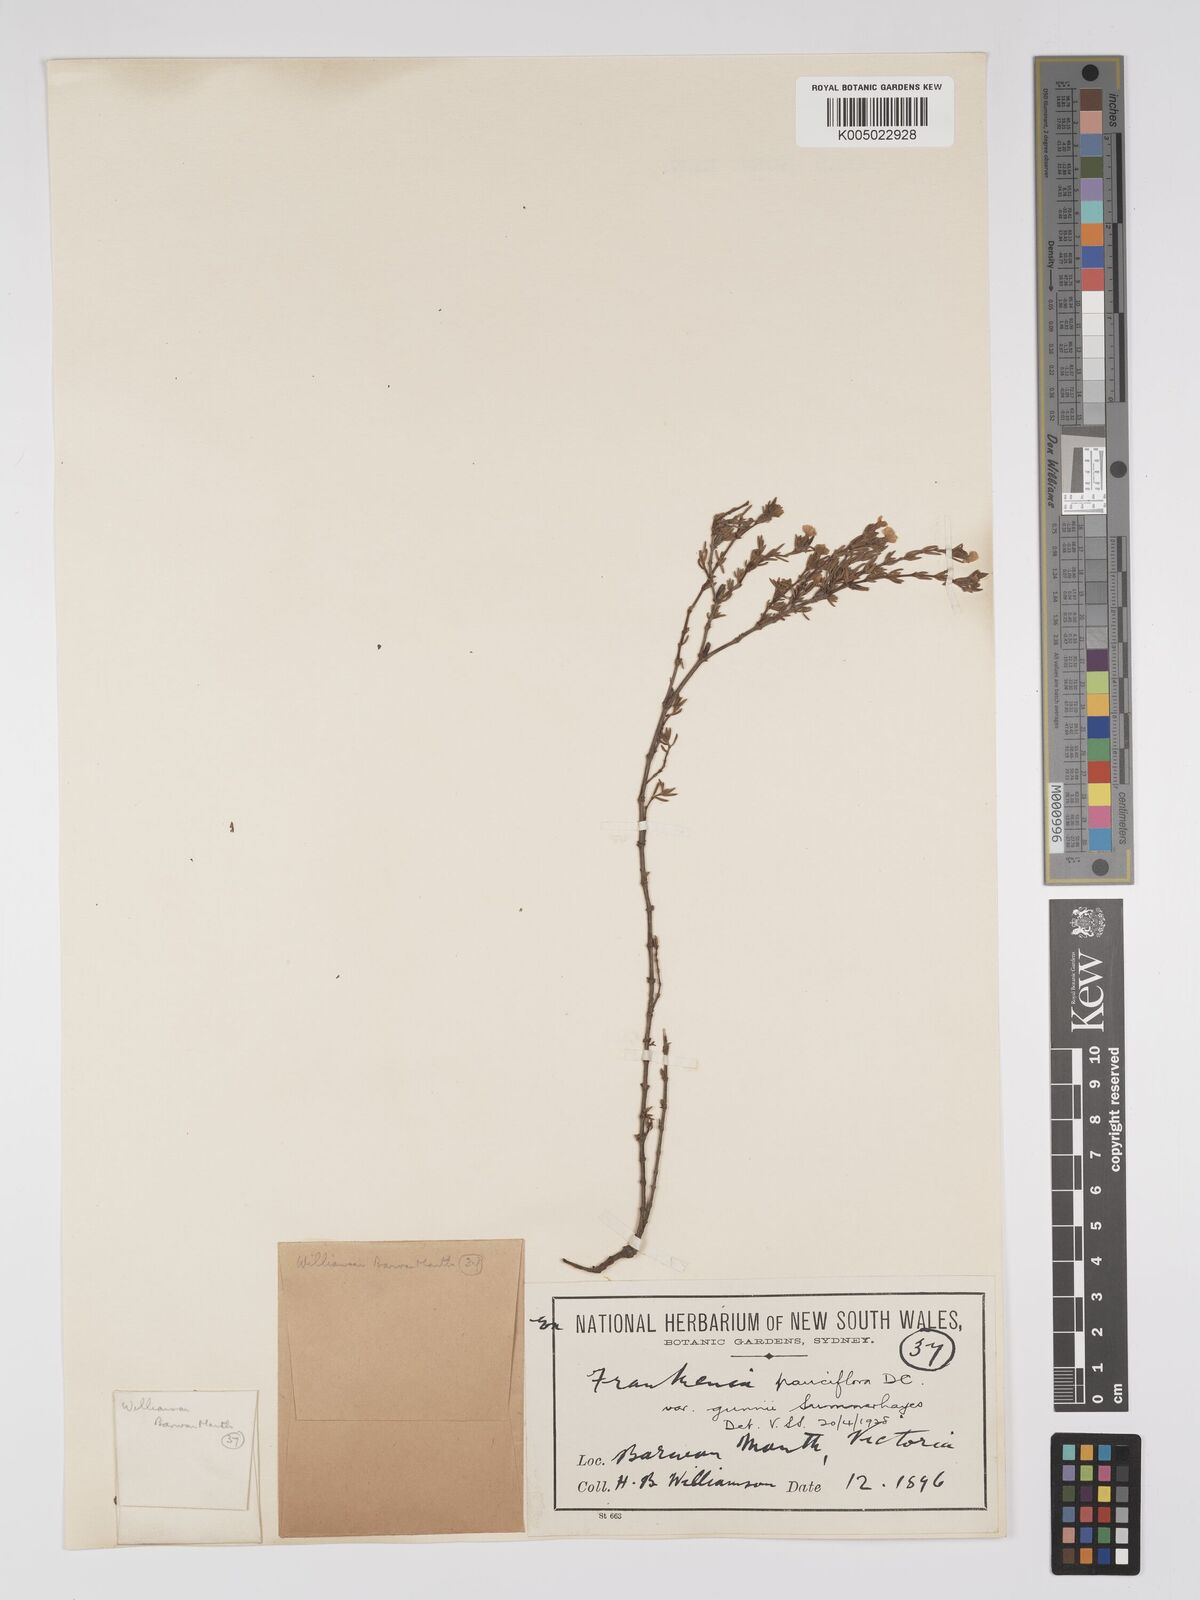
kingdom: Plantae
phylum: Tracheophyta
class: Magnoliopsida
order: Caryophyllales
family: Frankeniaceae
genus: Frankenia
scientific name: Frankenia pauciflora
